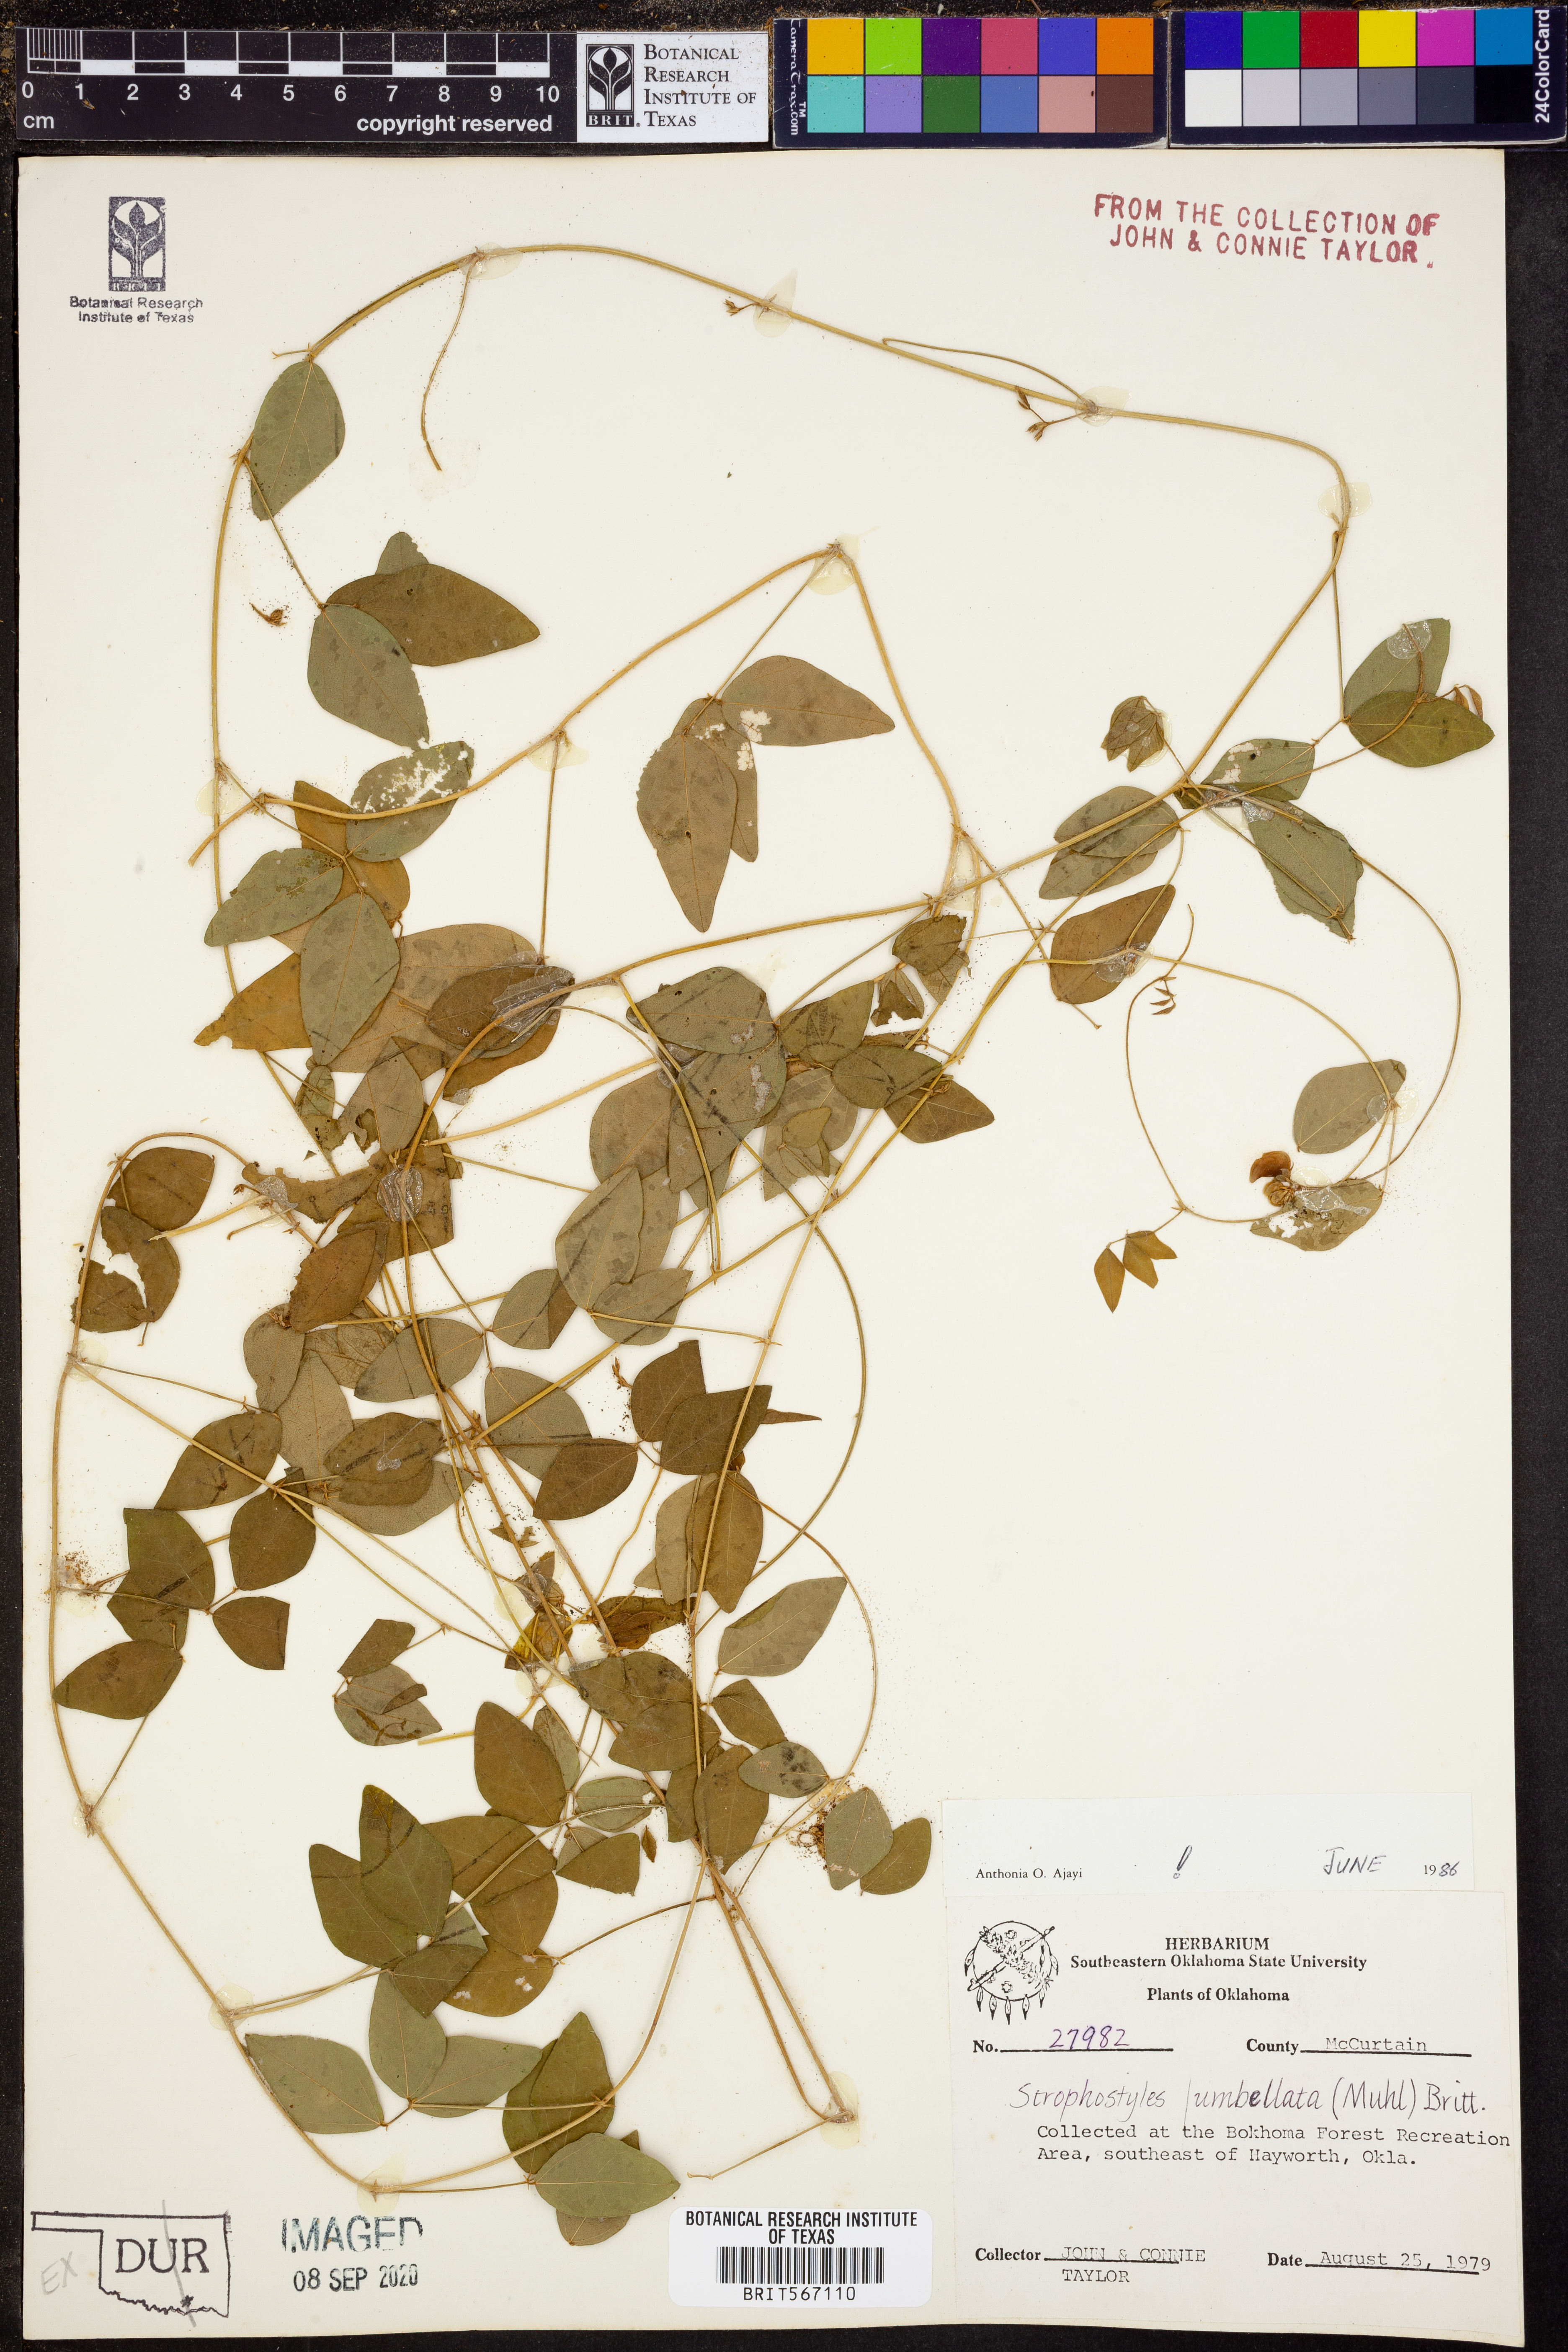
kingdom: Plantae
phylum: Tracheophyta
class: Magnoliopsida
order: Fabales
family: Fabaceae
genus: Strophostyles
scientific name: Strophostyles umbellata
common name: Perennial wild bean
